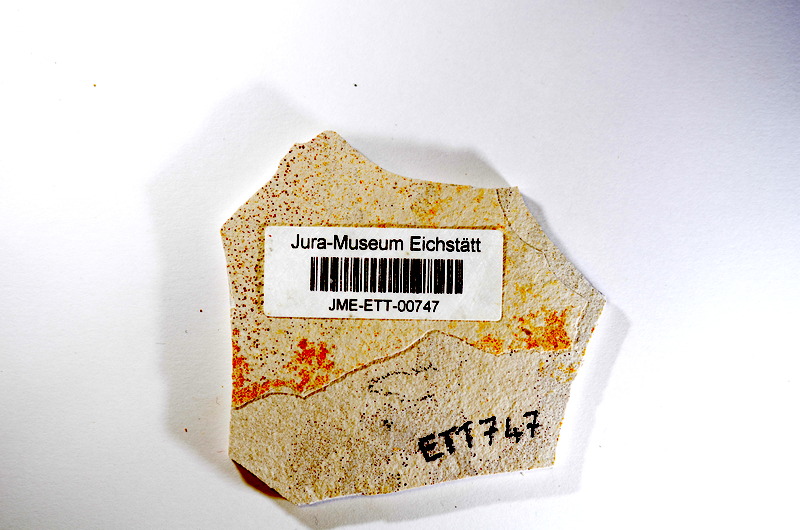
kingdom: Animalia
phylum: Chordata
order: Salmoniformes
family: Orthogonikleithridae
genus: Orthogonikleithrus
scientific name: Orthogonikleithrus hoelli
